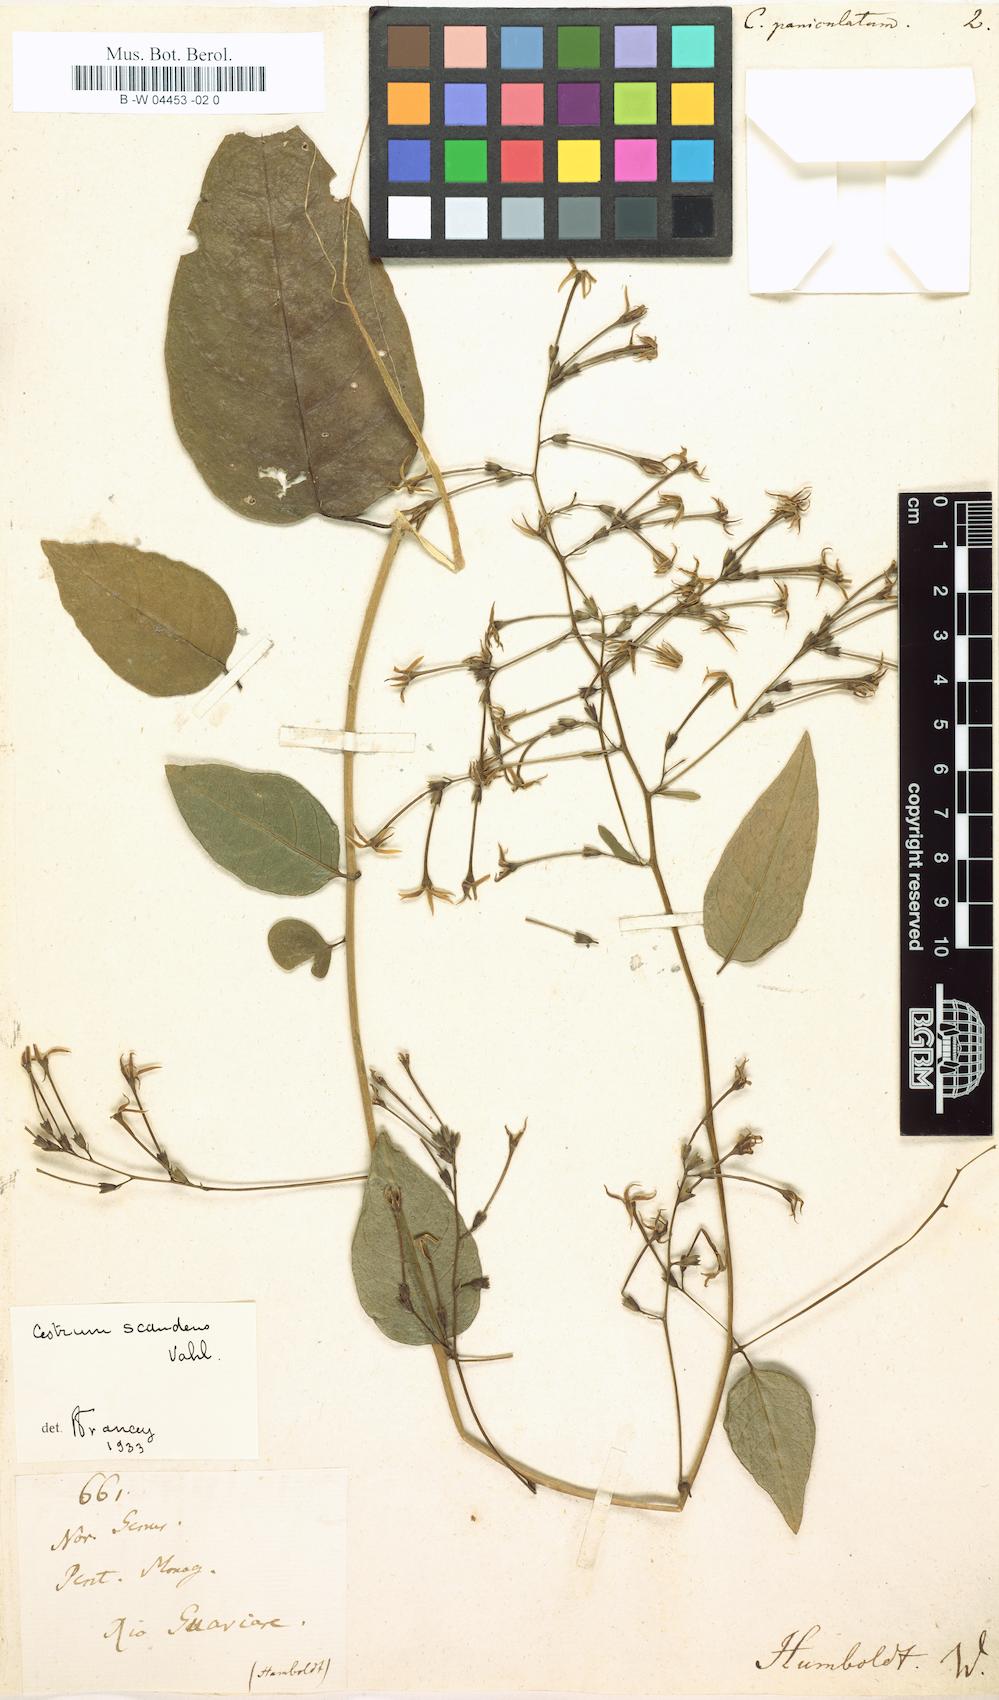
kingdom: Plantae
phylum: Tracheophyta
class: Magnoliopsida
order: Solanales
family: Solanaceae
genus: Cestrum
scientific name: Cestrum scandens
